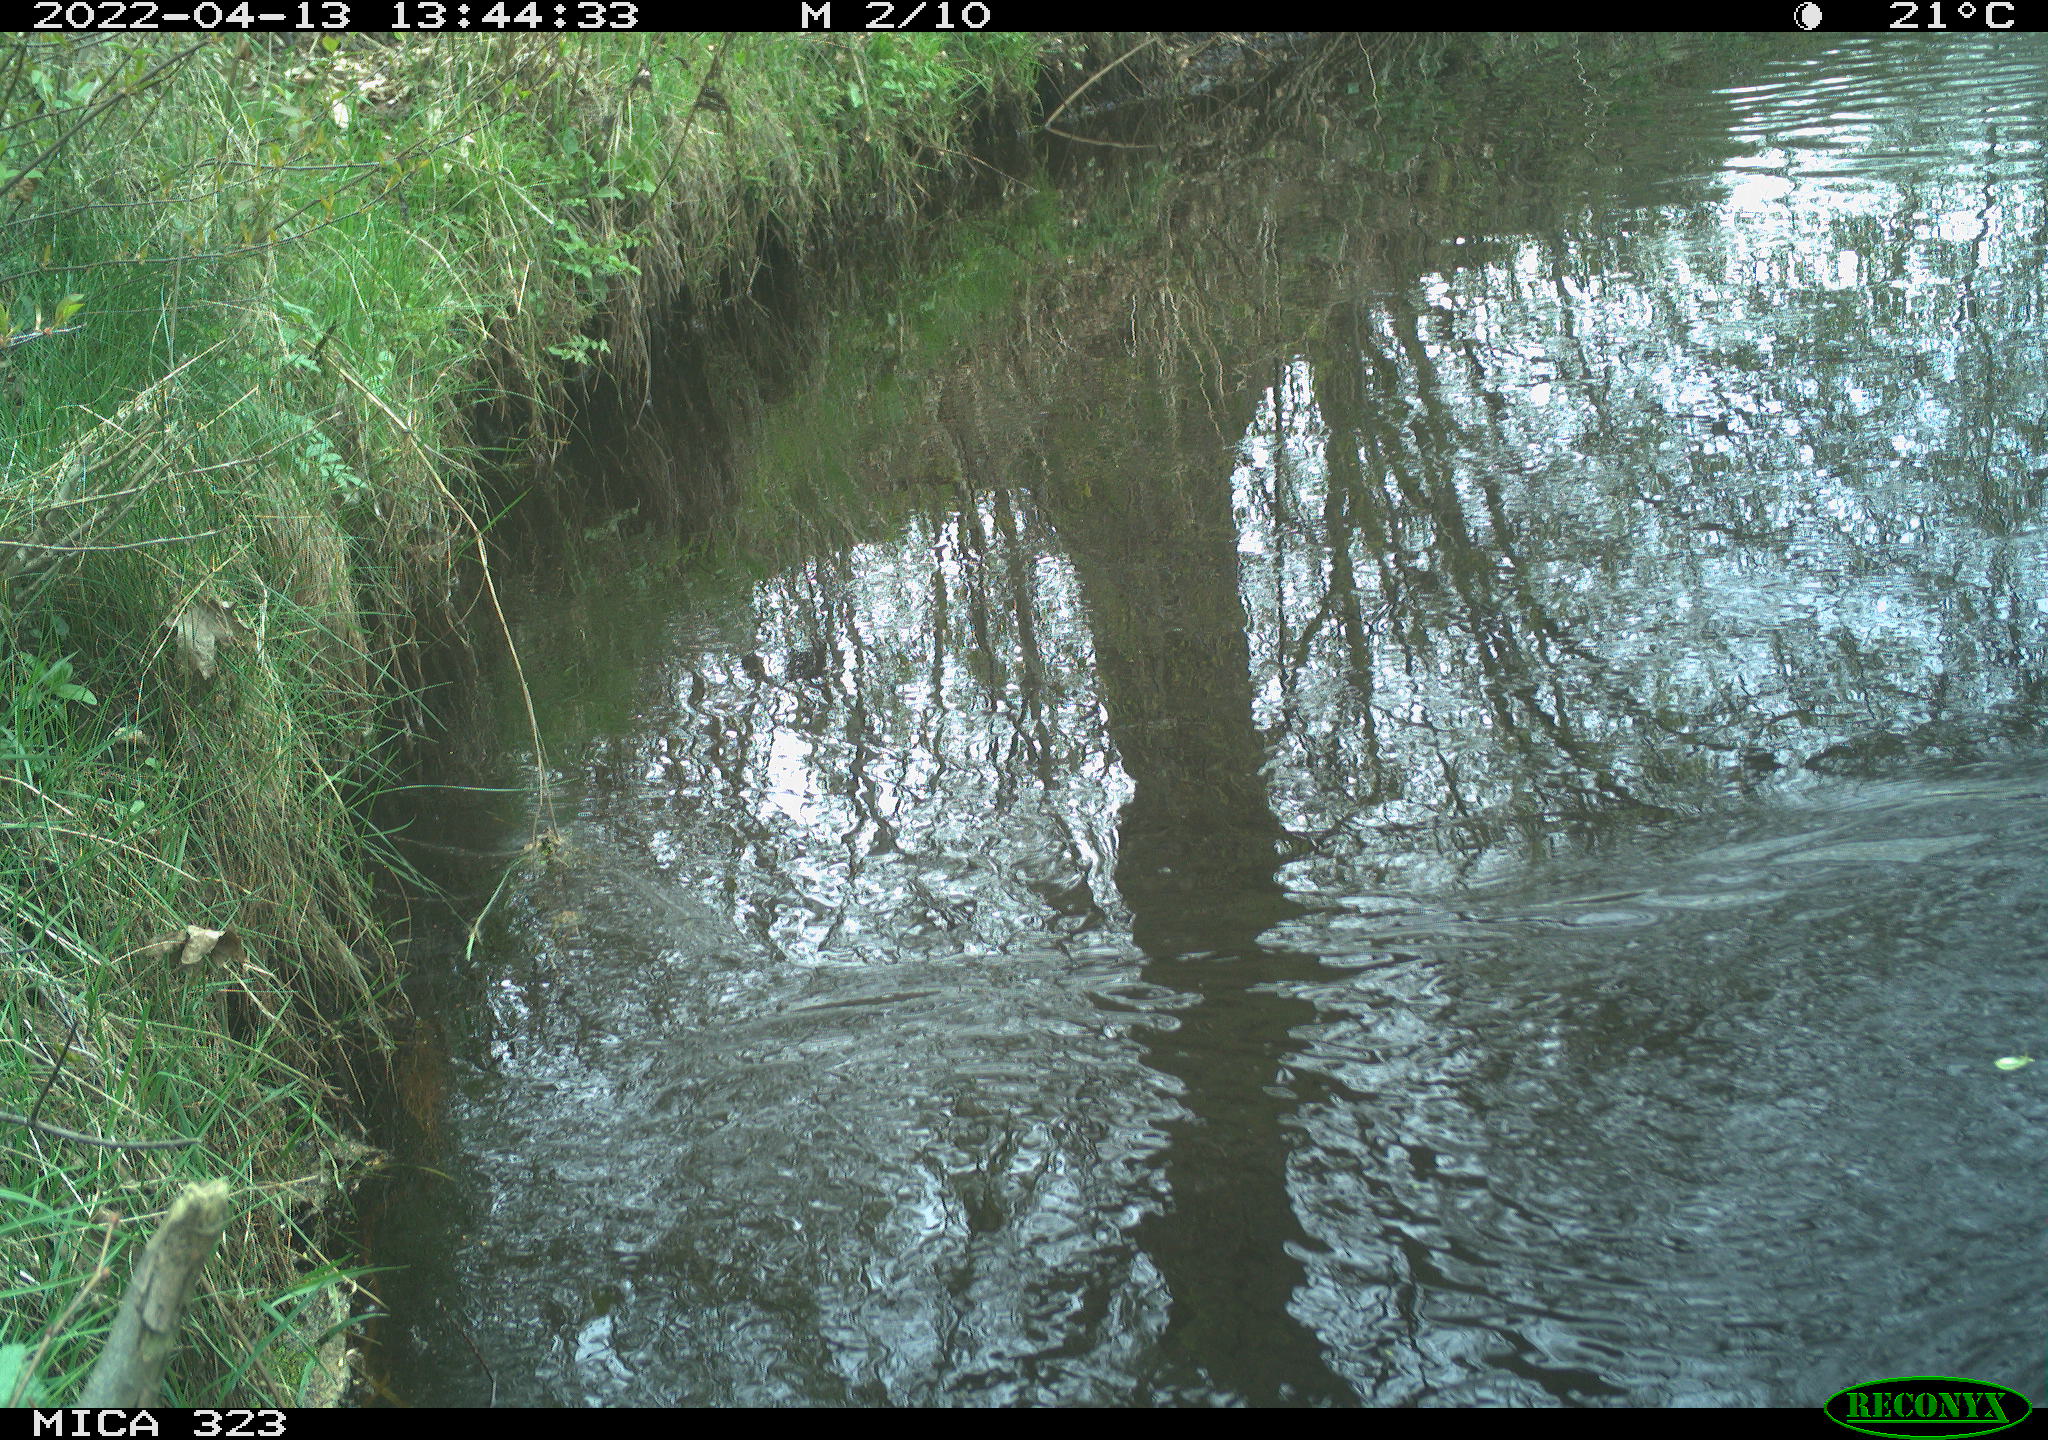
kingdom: Animalia
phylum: Chordata
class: Aves
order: Gruiformes
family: Rallidae
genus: Gallinula
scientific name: Gallinula chloropus
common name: Common moorhen
